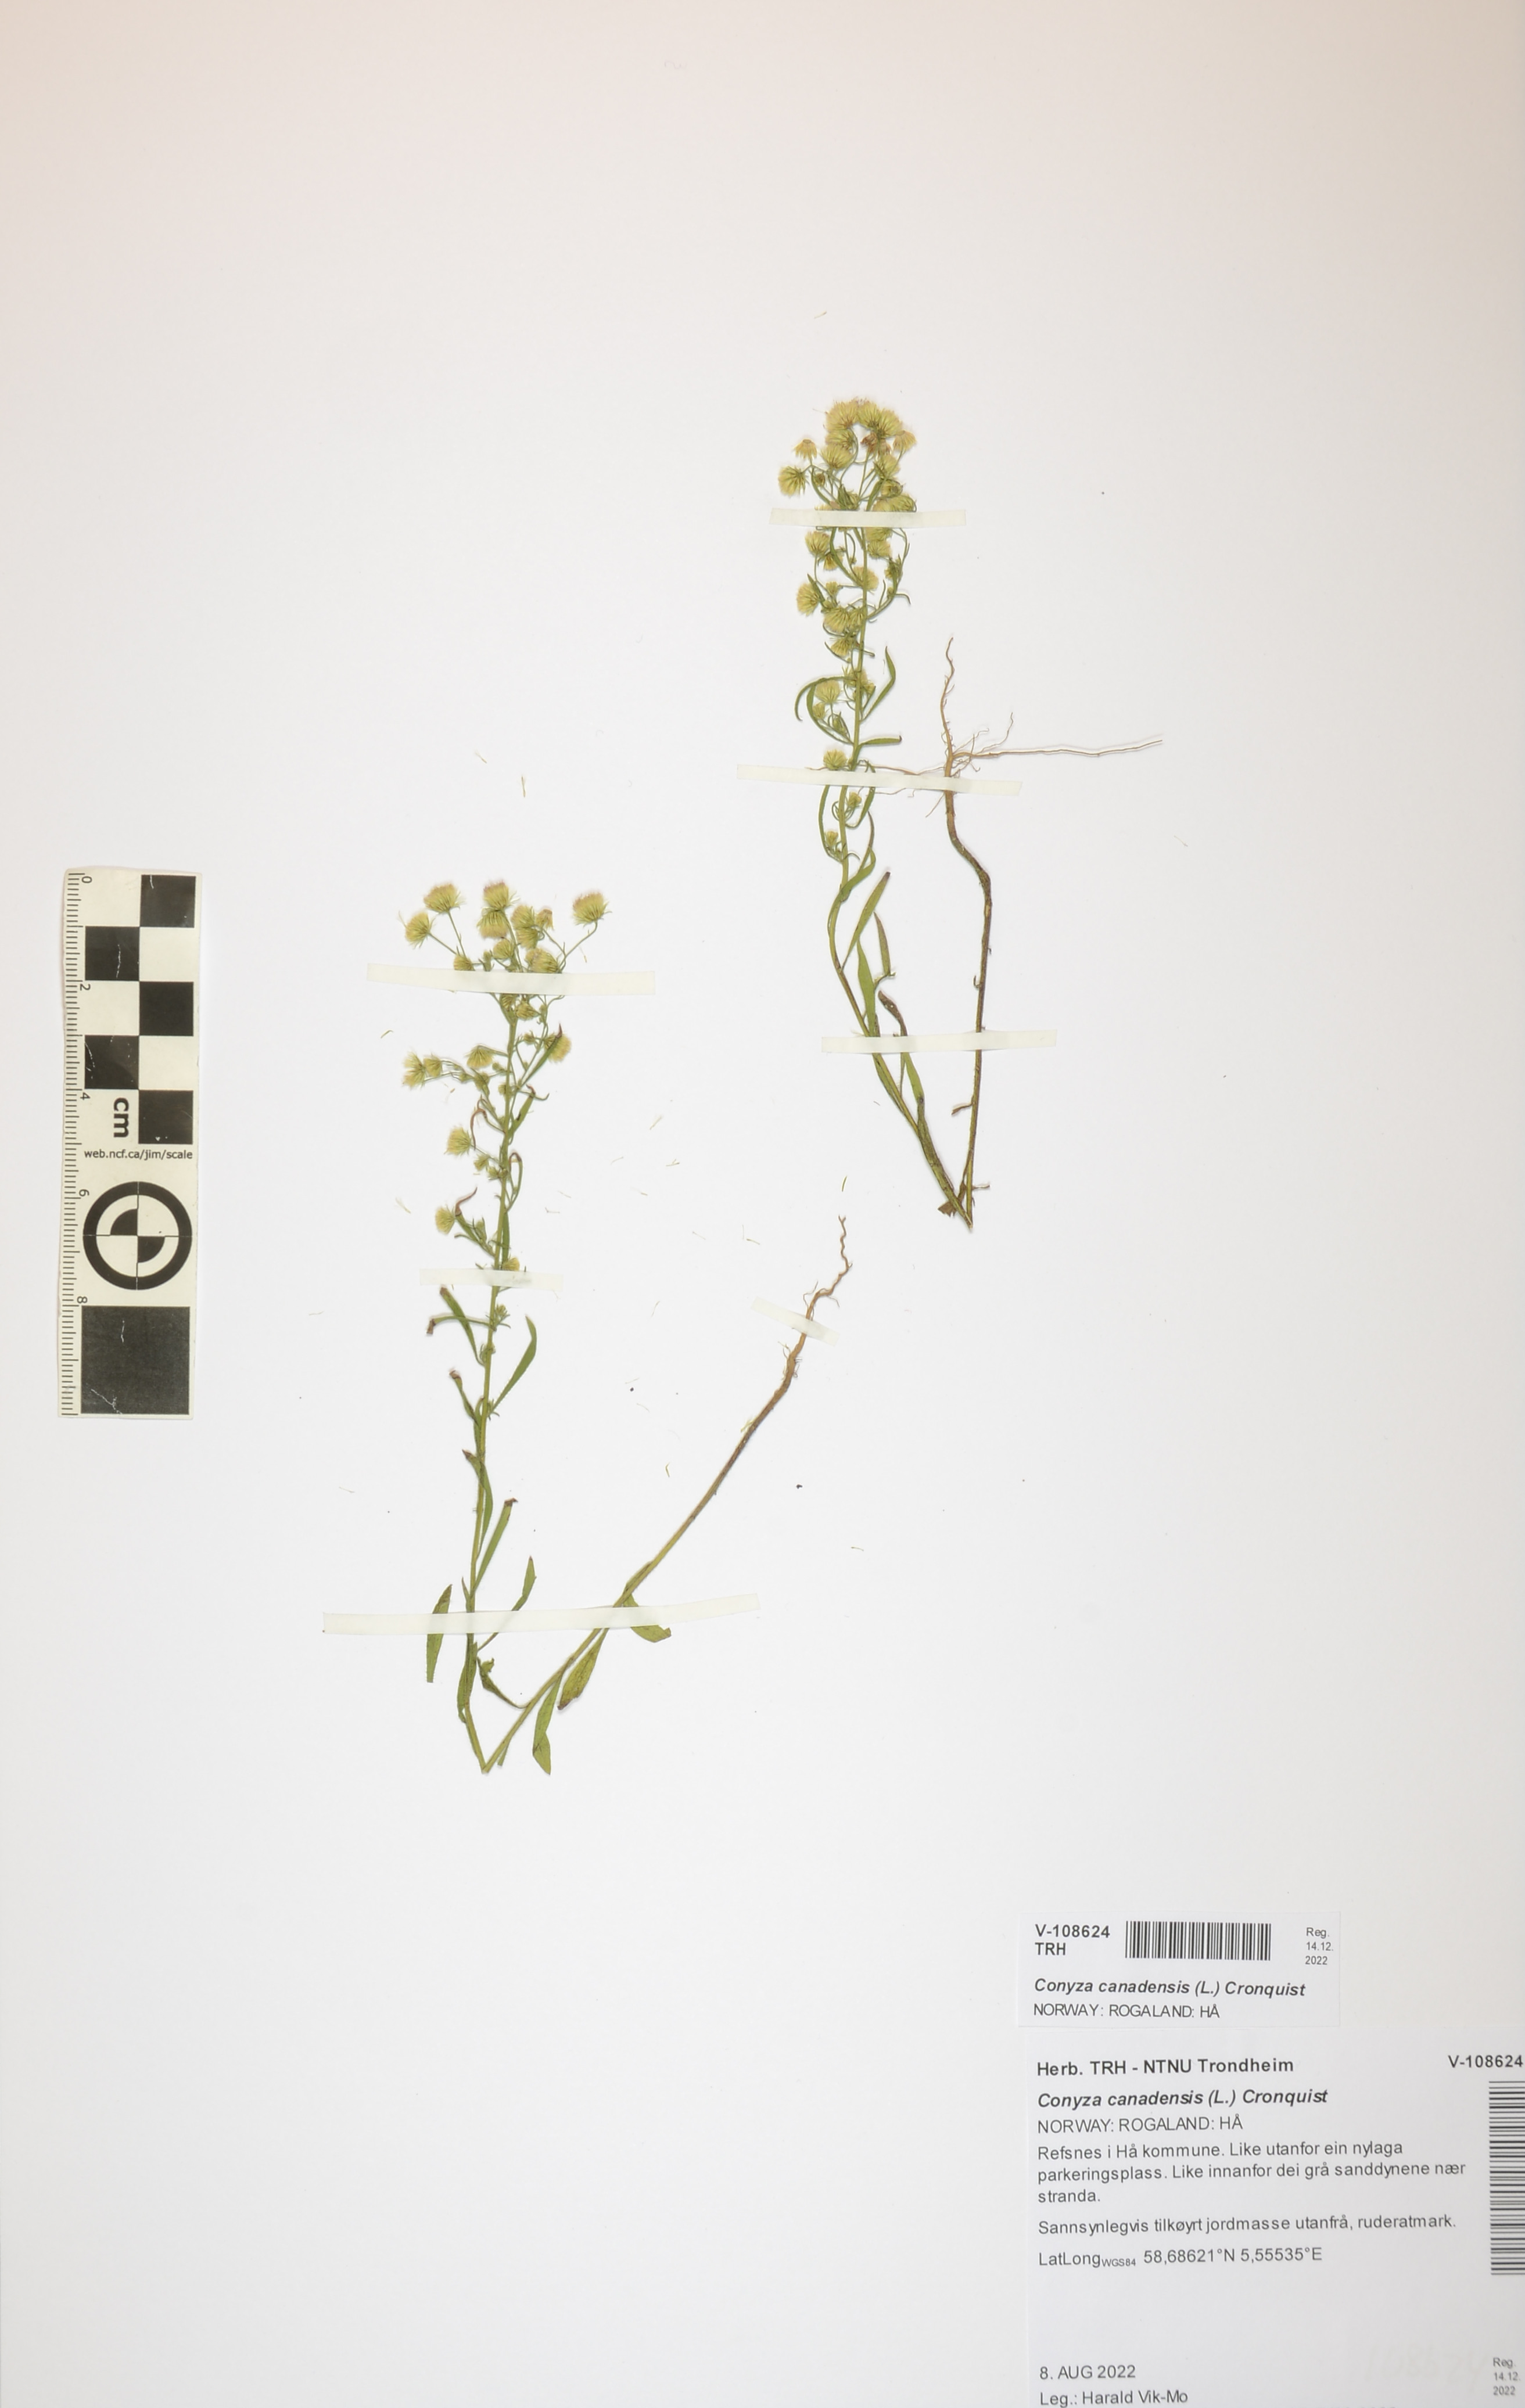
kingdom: Plantae
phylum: Tracheophyta
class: Magnoliopsida
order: Asterales
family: Asteraceae
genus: Erigeron
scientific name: Erigeron canadensis
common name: Canadian fleabane
